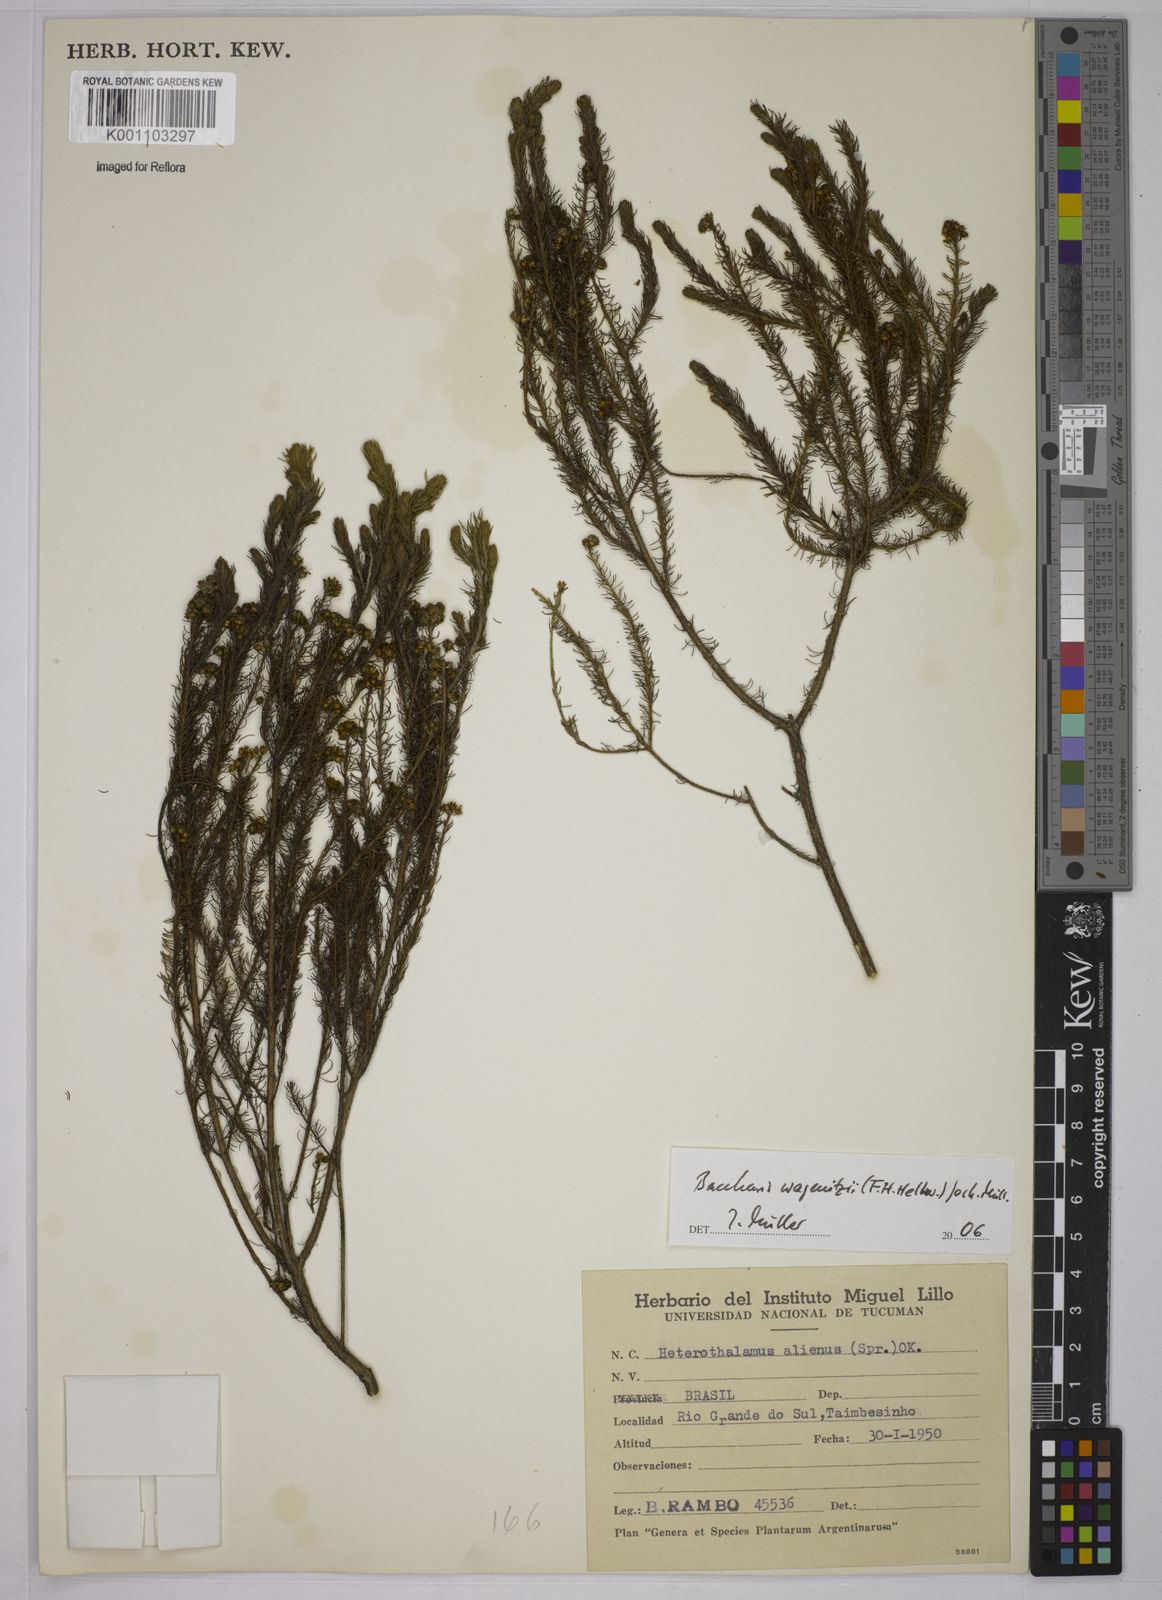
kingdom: Plantae
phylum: Tracheophyta
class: Magnoliopsida
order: Asterales
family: Asteraceae
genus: Baccharis
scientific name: Baccharis
